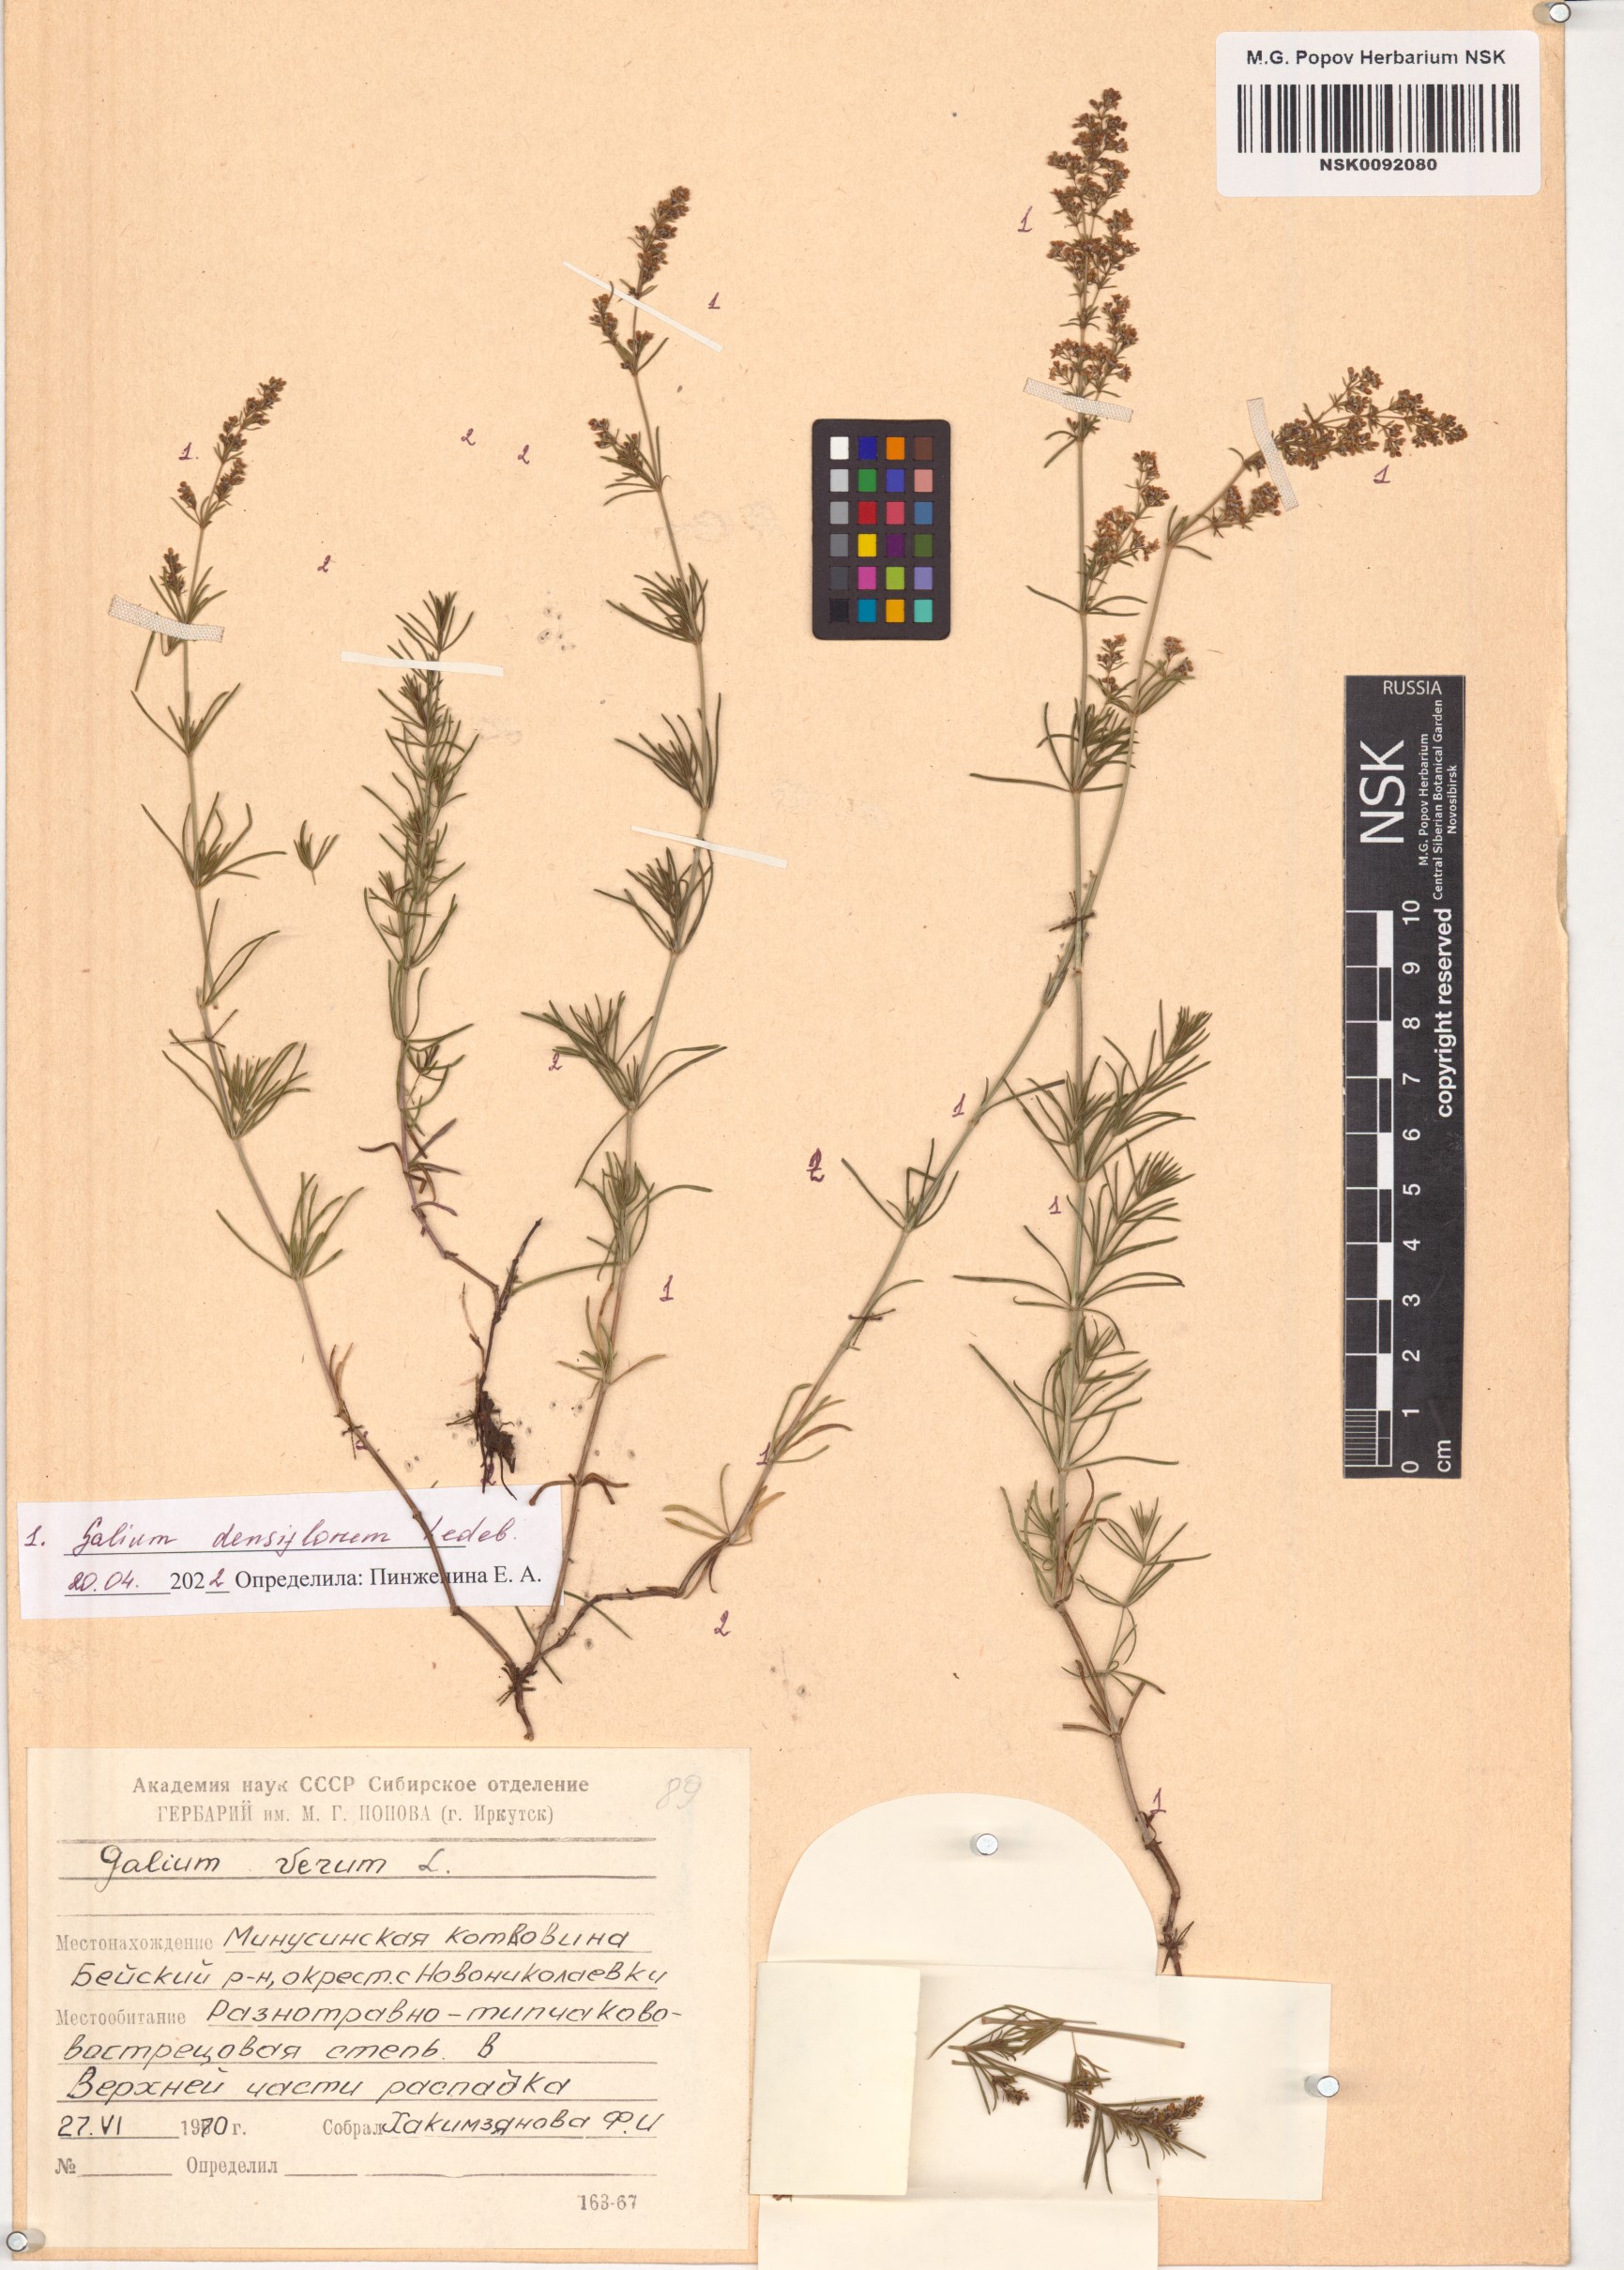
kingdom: Plantae
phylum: Tracheophyta
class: Magnoliopsida
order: Gentianales
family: Rubiaceae
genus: Galium
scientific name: Galium densiflorum
